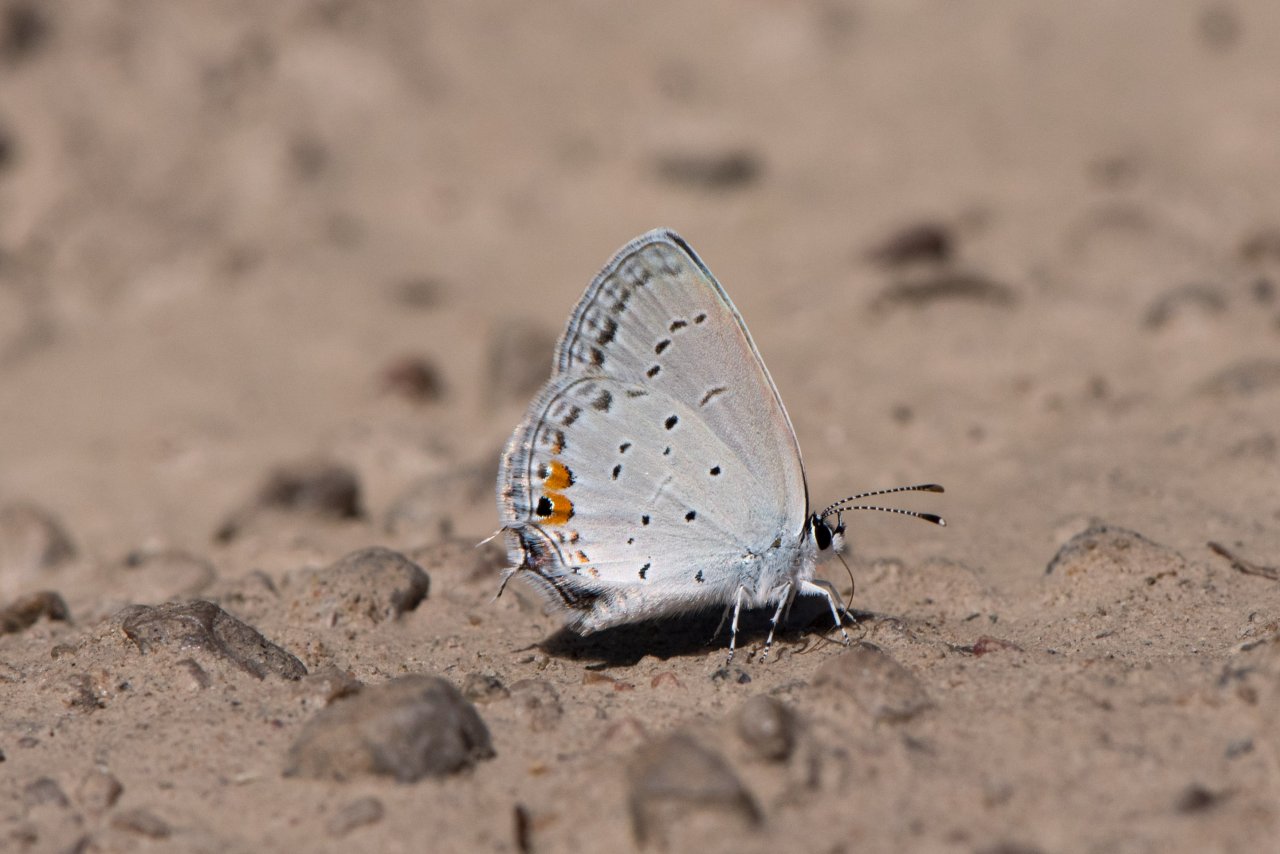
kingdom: Animalia
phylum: Arthropoda
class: Insecta
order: Lepidoptera
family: Lycaenidae
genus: Elkalyce
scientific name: Elkalyce comyntas
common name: Eastern Tailed-Blue
